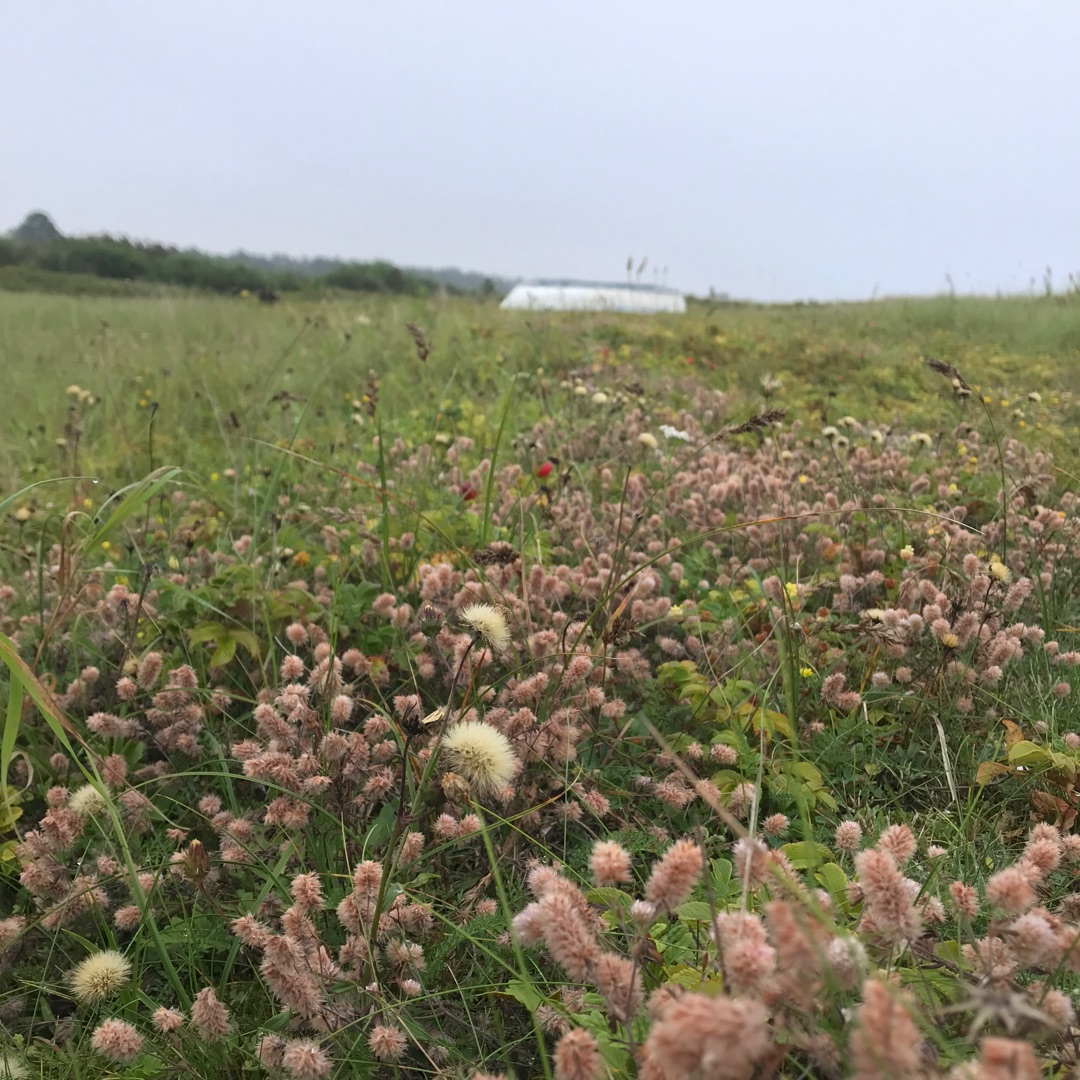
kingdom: Plantae
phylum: Tracheophyta
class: Magnoliopsida
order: Fabales
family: Fabaceae
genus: Trifolium
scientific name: Trifolium arvense
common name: Hare-kløver
